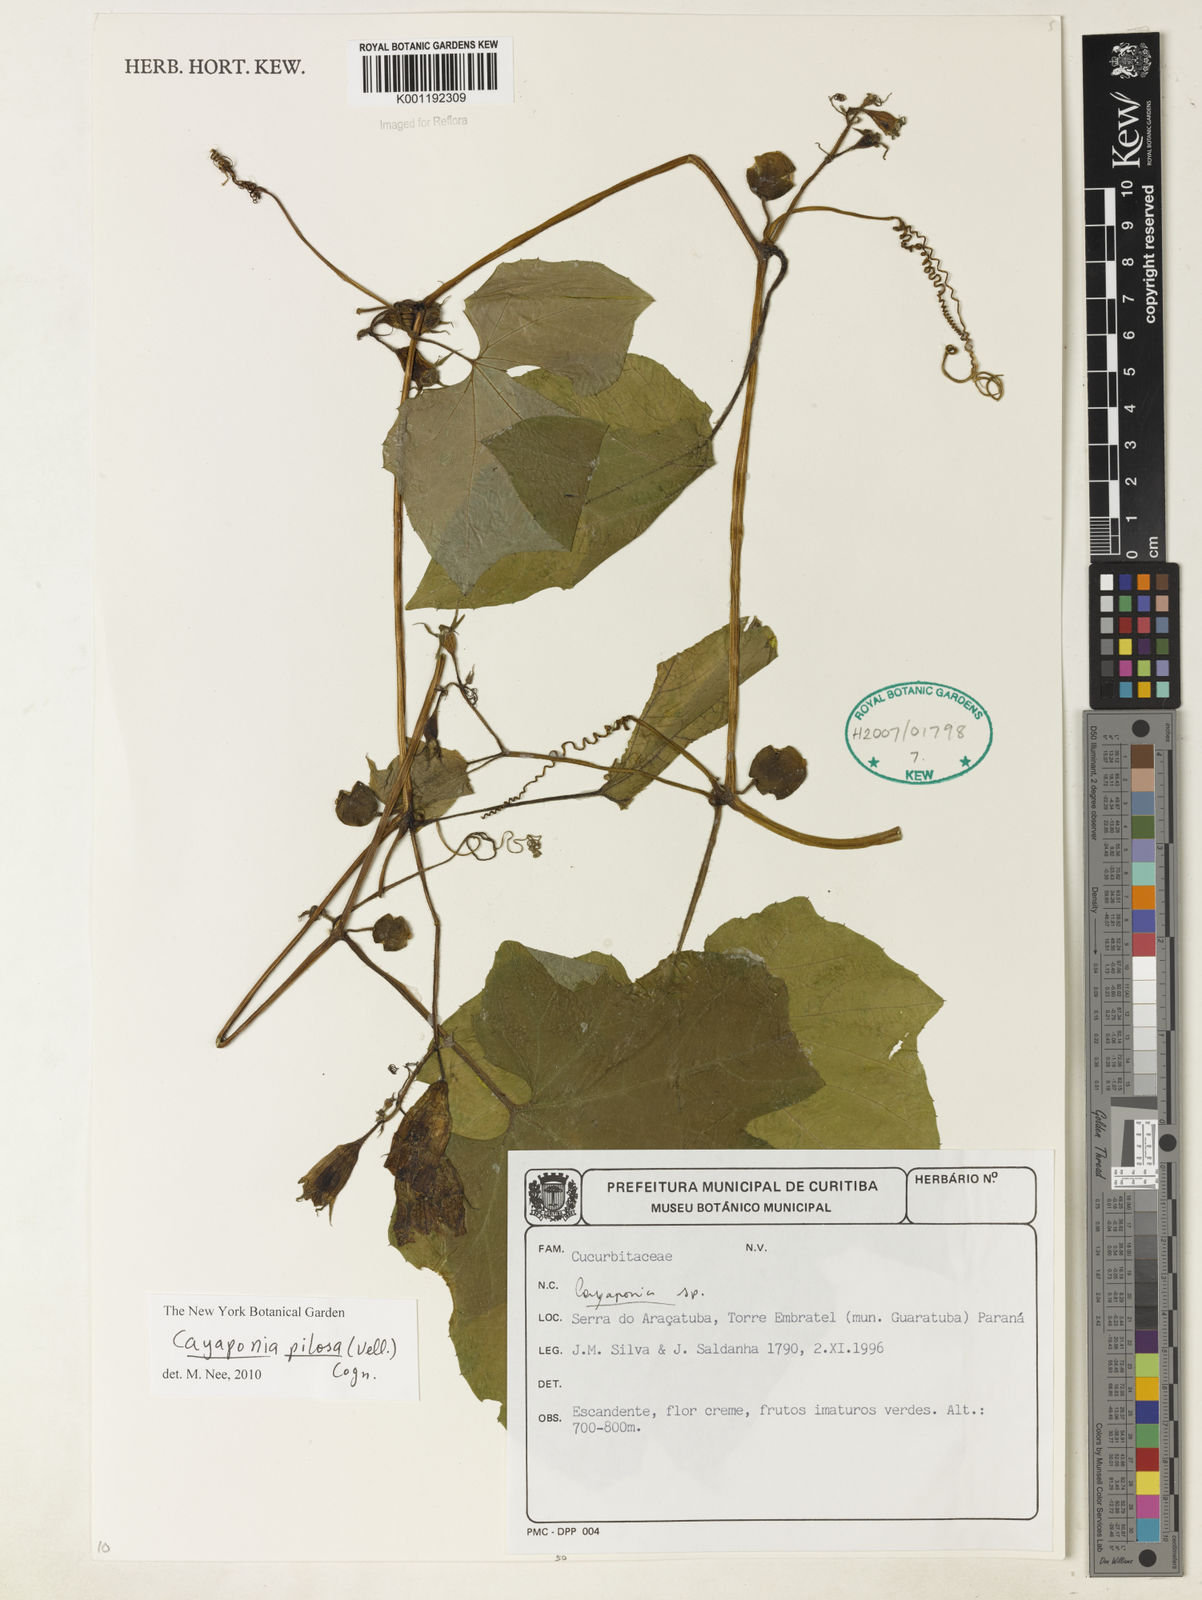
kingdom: Plantae
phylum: Tracheophyta
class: Magnoliopsida
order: Cucurbitales
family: Cucurbitaceae
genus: Cayaponia
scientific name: Cayaponia pilosa
